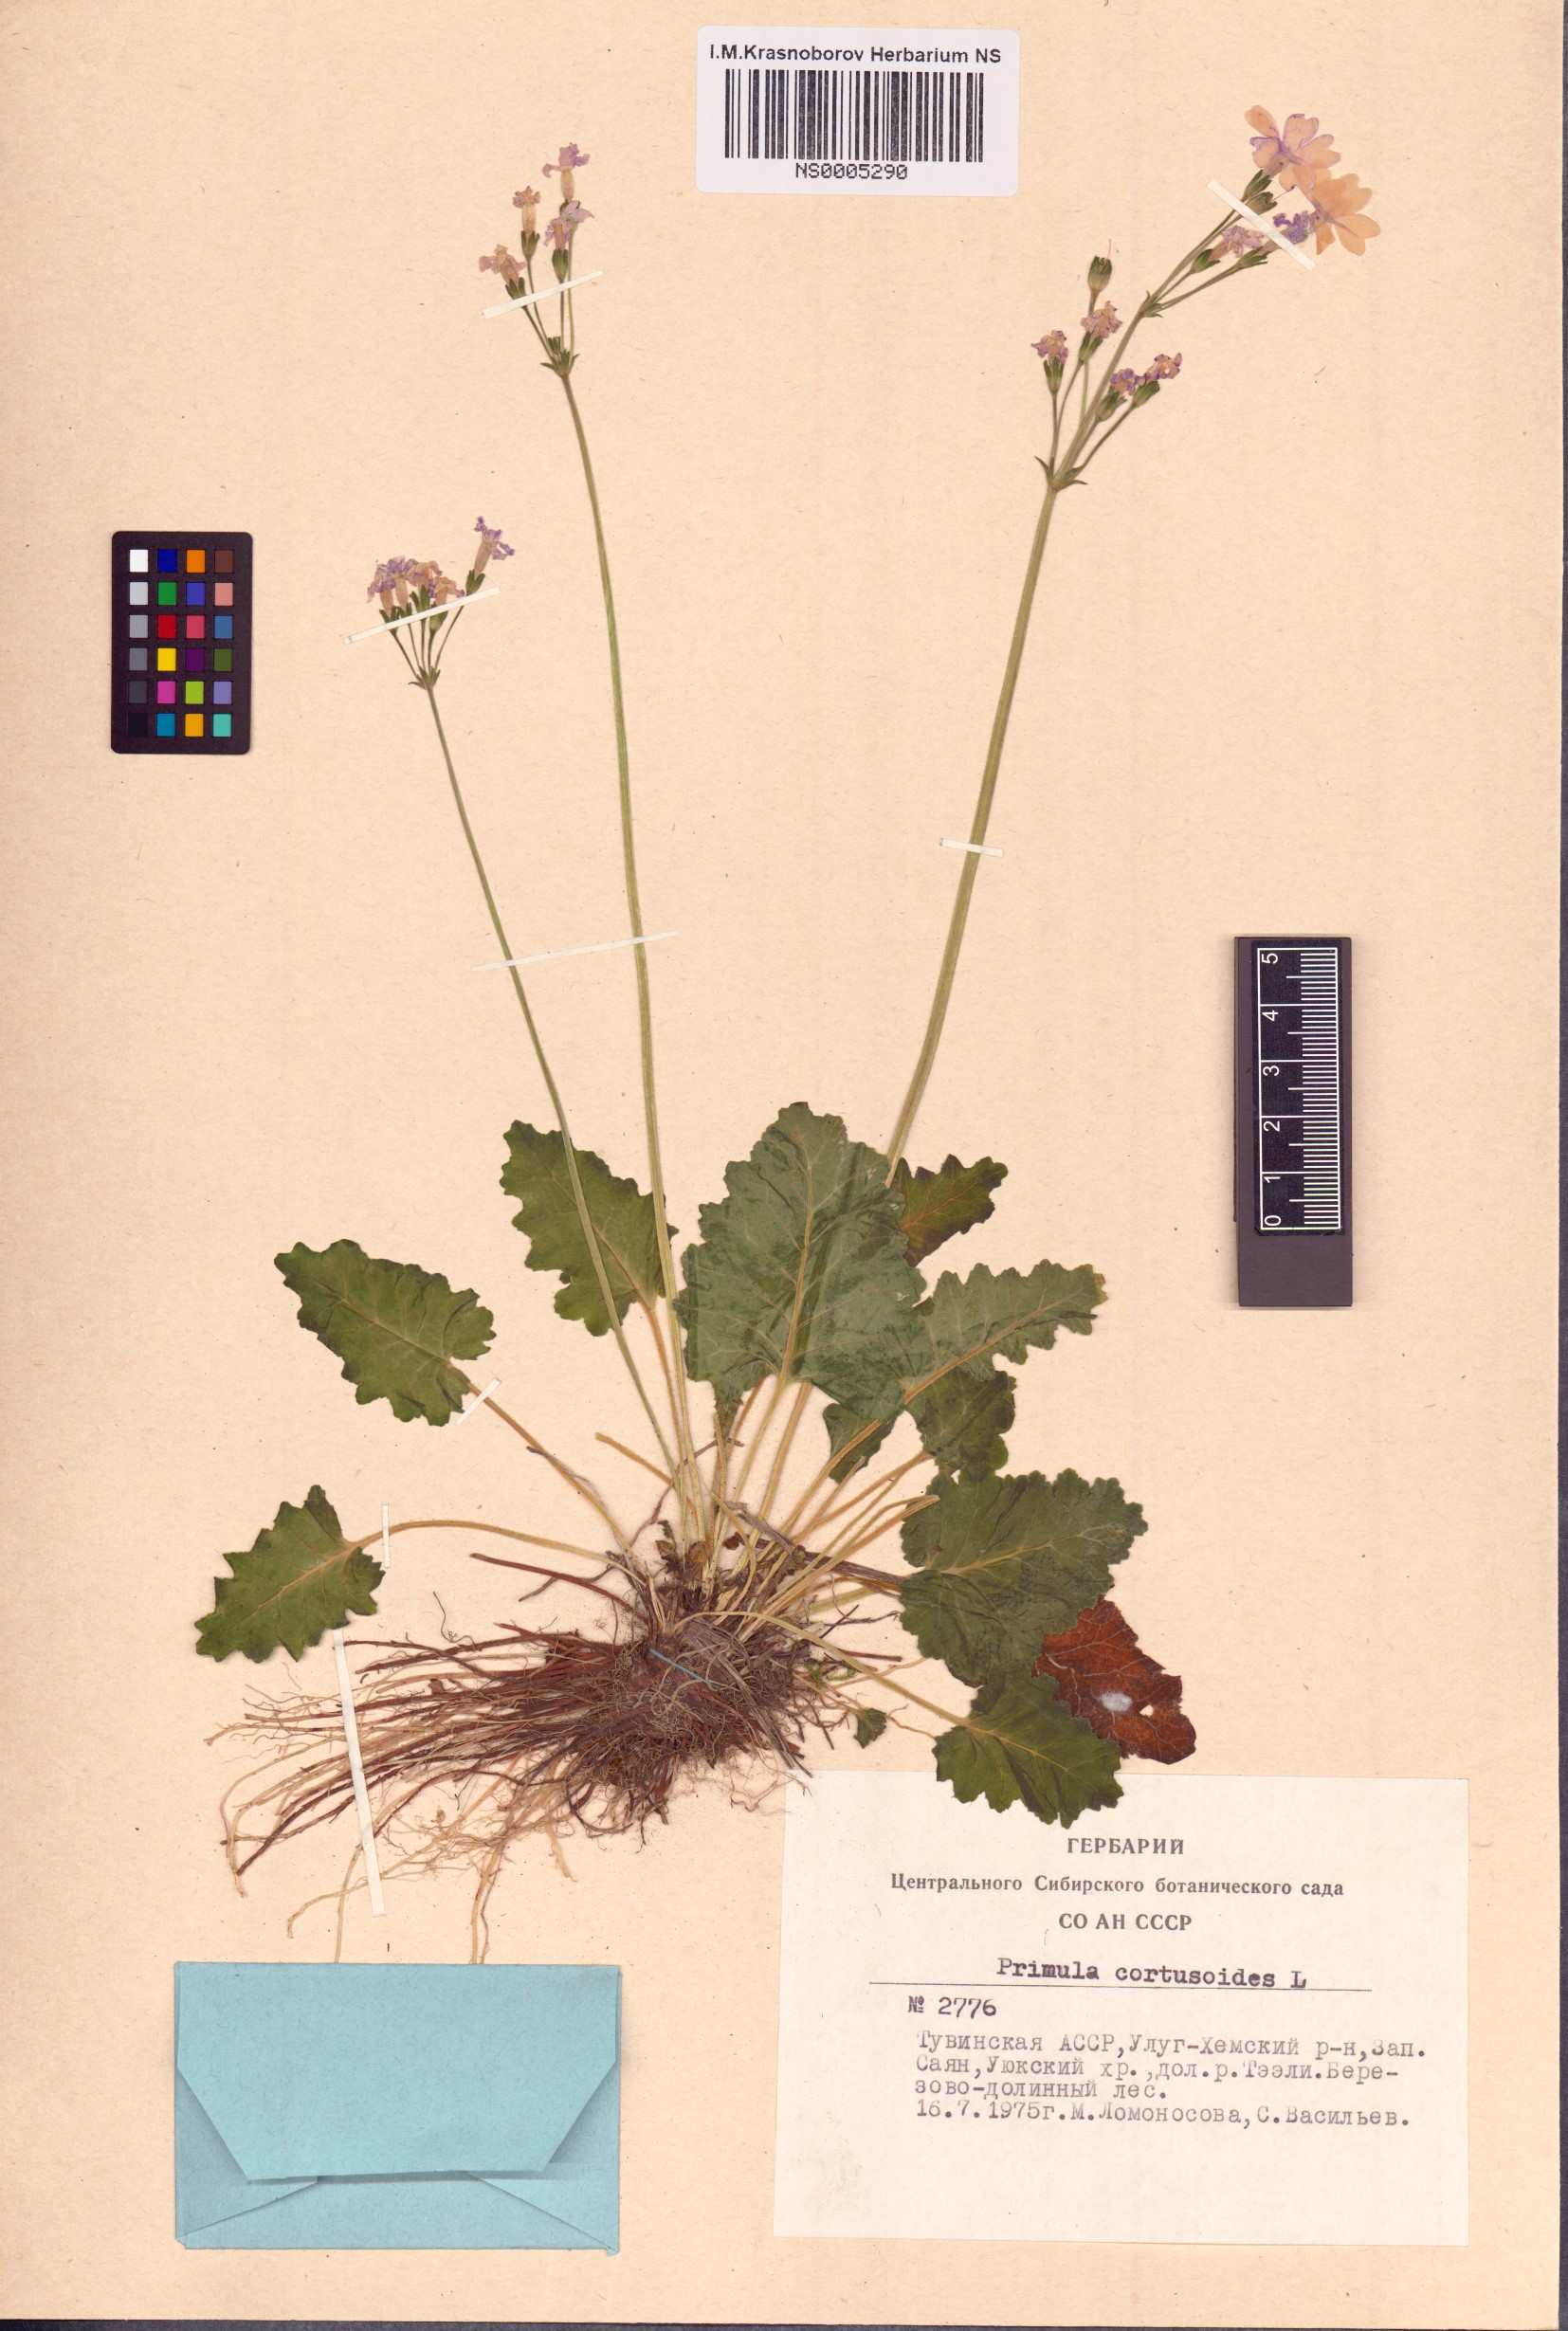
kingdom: Plantae
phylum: Tracheophyta
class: Magnoliopsida
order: Ericales
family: Primulaceae
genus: Primula
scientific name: Primula cortusoides
